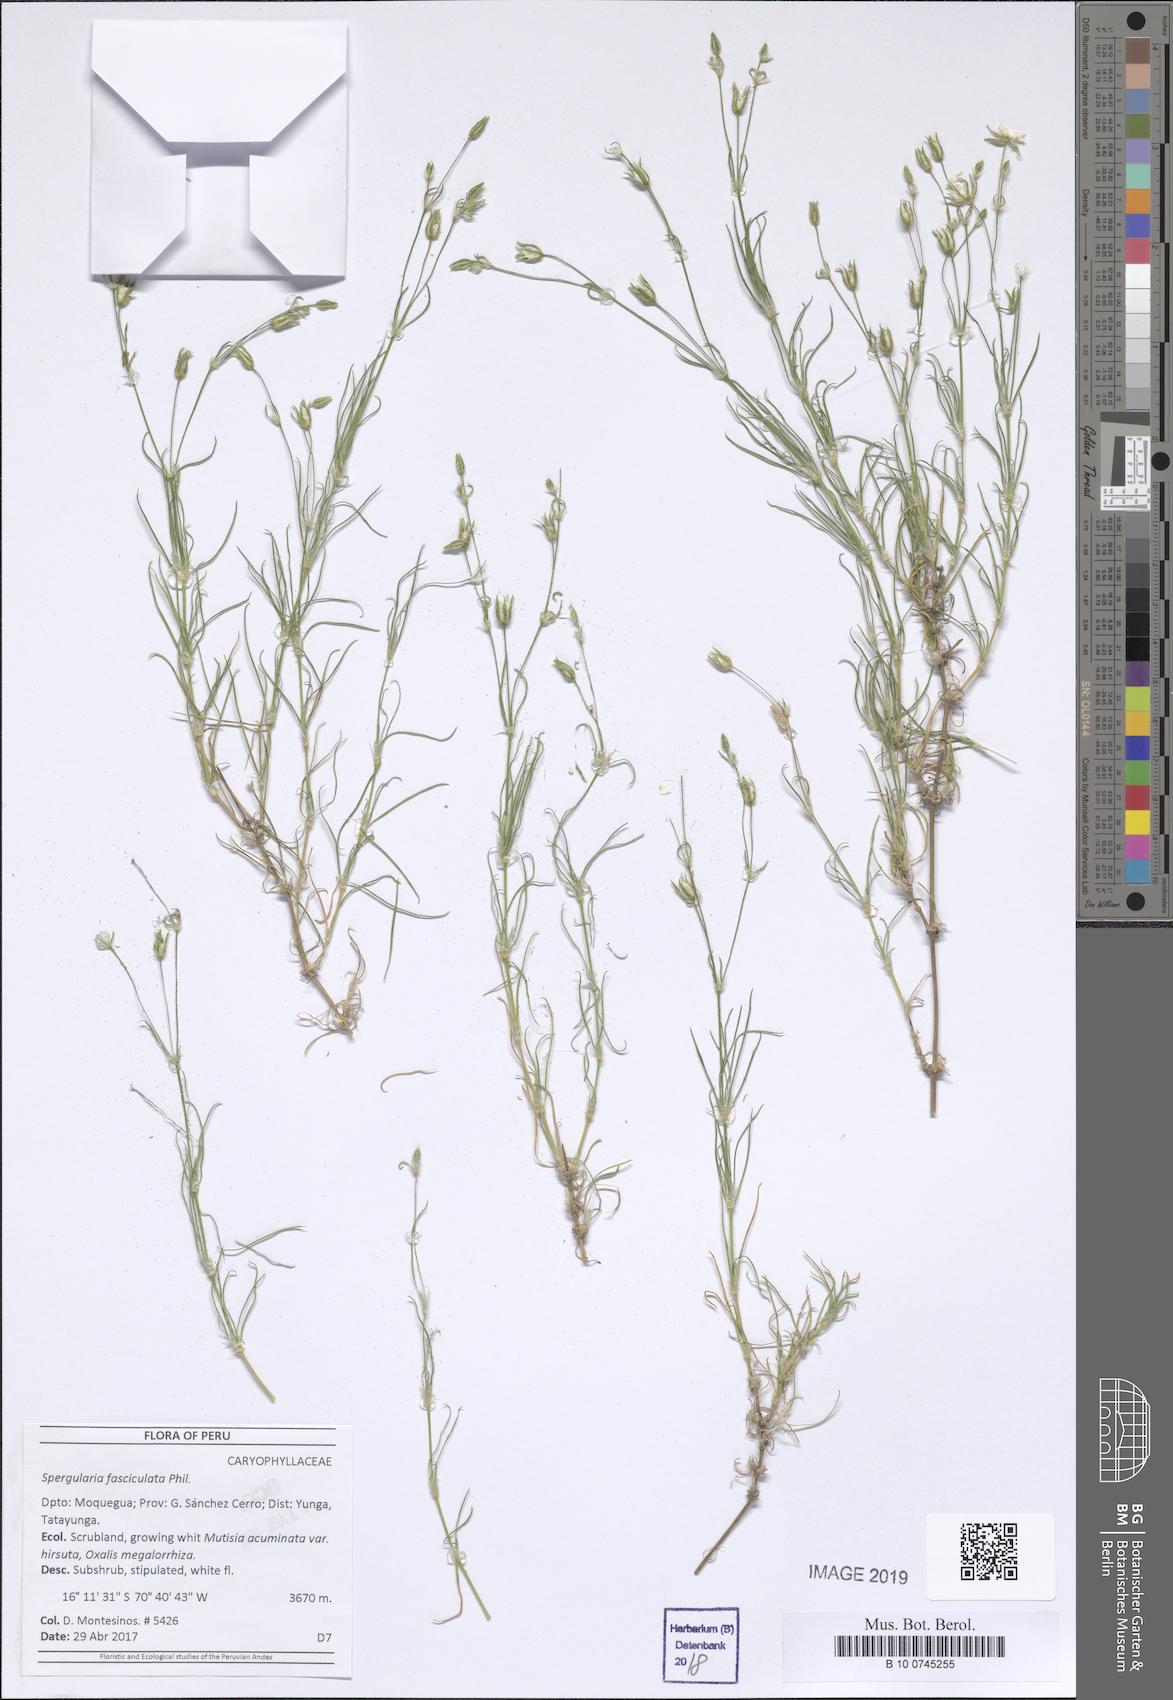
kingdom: Plantae
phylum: Tracheophyta
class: Magnoliopsida
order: Caryophyllales
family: Caryophyllaceae
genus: Spergularia
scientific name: Spergularia fasciculata
